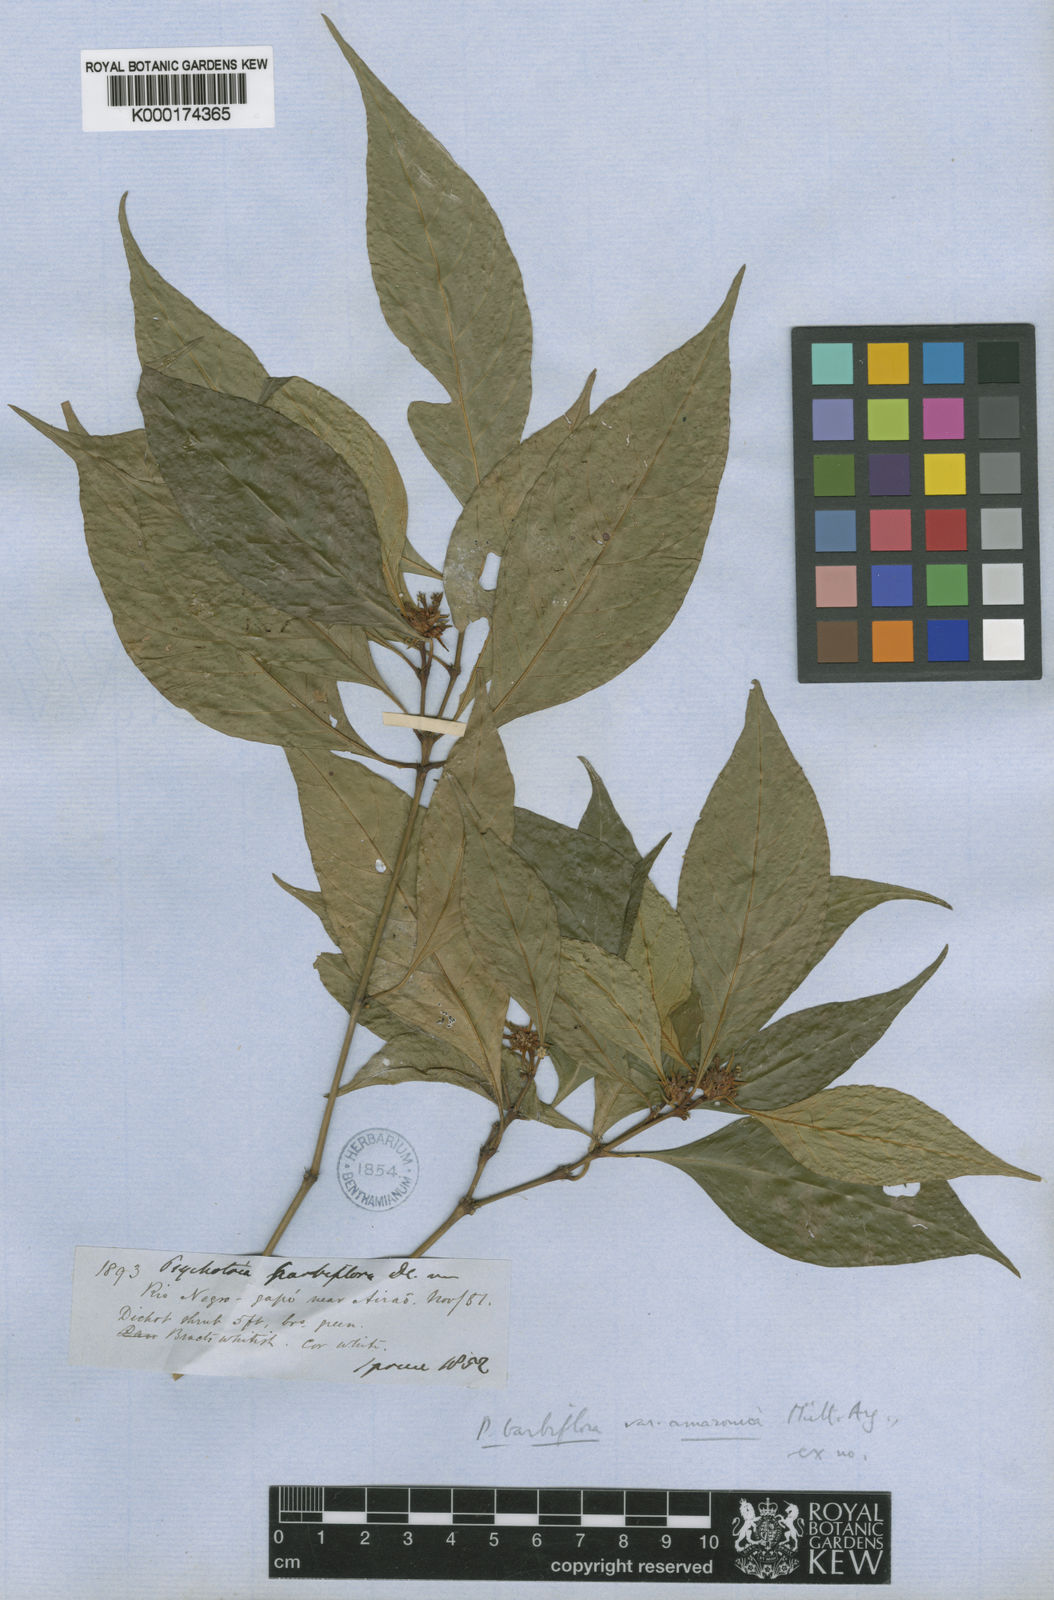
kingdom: Plantae
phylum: Tracheophyta
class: Magnoliopsida
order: Gentianales
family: Rubiaceae
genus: Psychotria
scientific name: Psychotria
